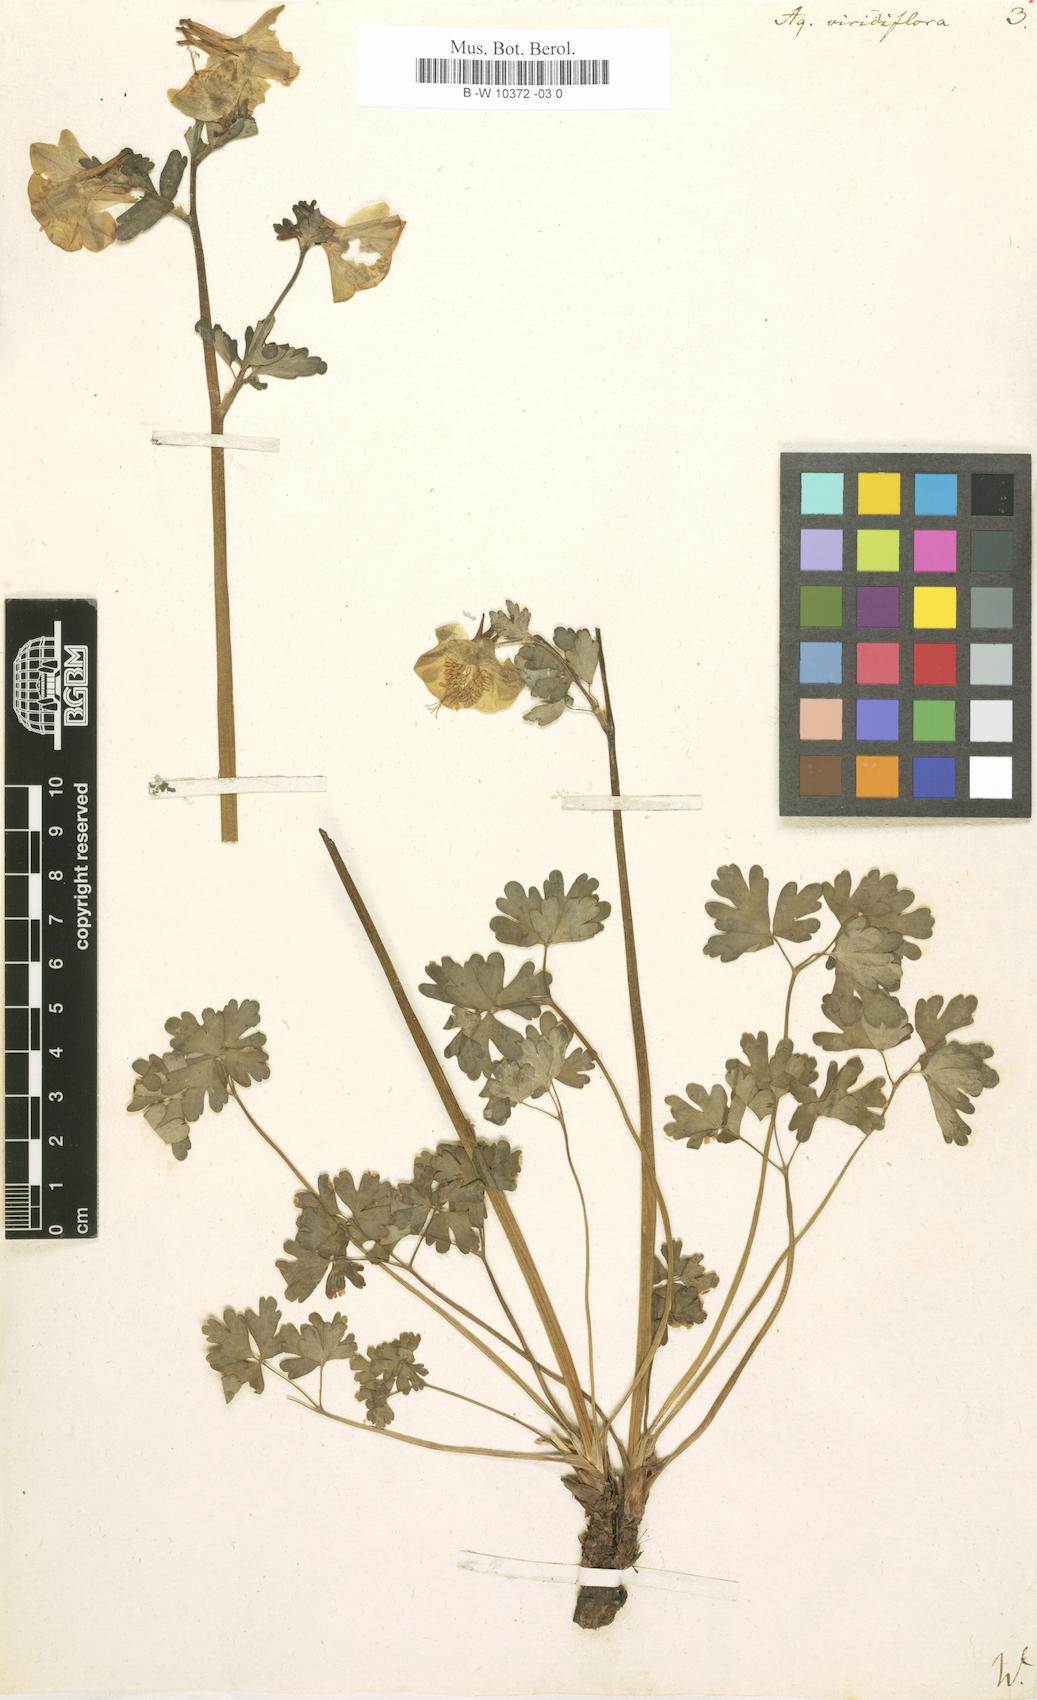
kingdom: Plantae
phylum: Tracheophyta
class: Magnoliopsida
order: Ranunculales
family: Ranunculaceae
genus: Aquilegia
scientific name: Aquilegia viridiflora
